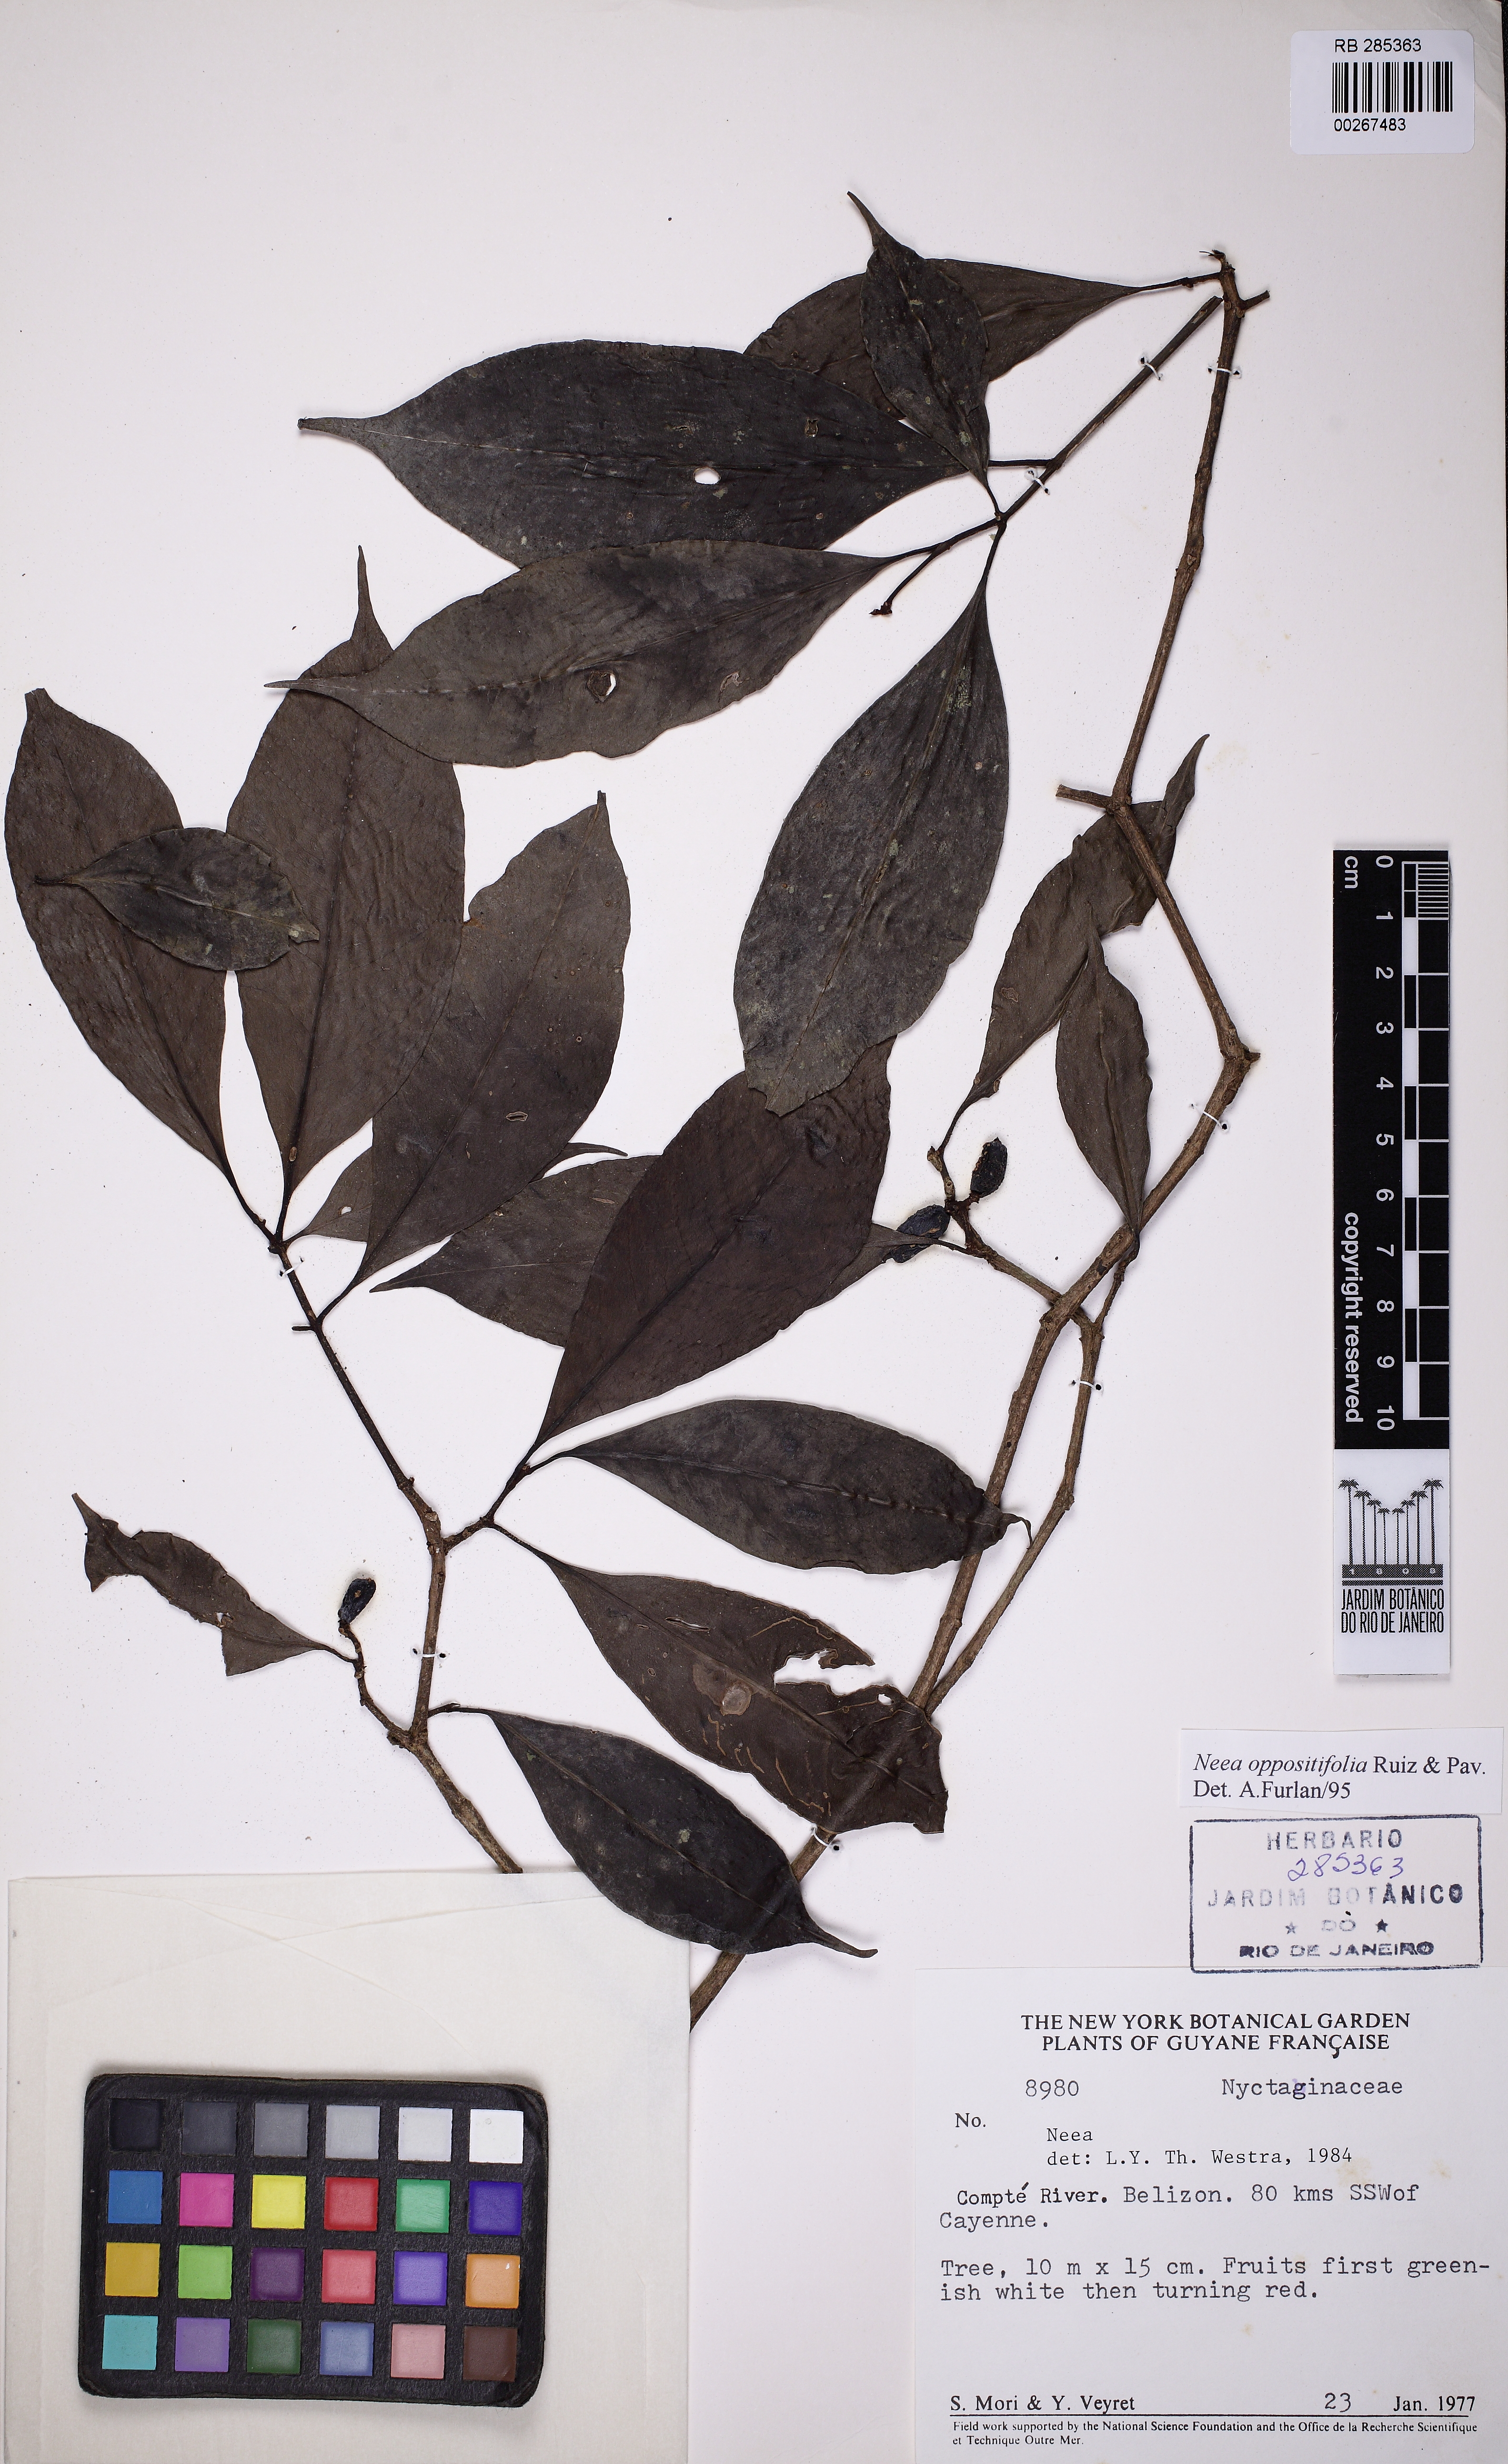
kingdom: Plantae
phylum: Tracheophyta
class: Magnoliopsida
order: Caryophyllales
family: Nyctaginaceae
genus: Neea
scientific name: Neea oppositifolia
